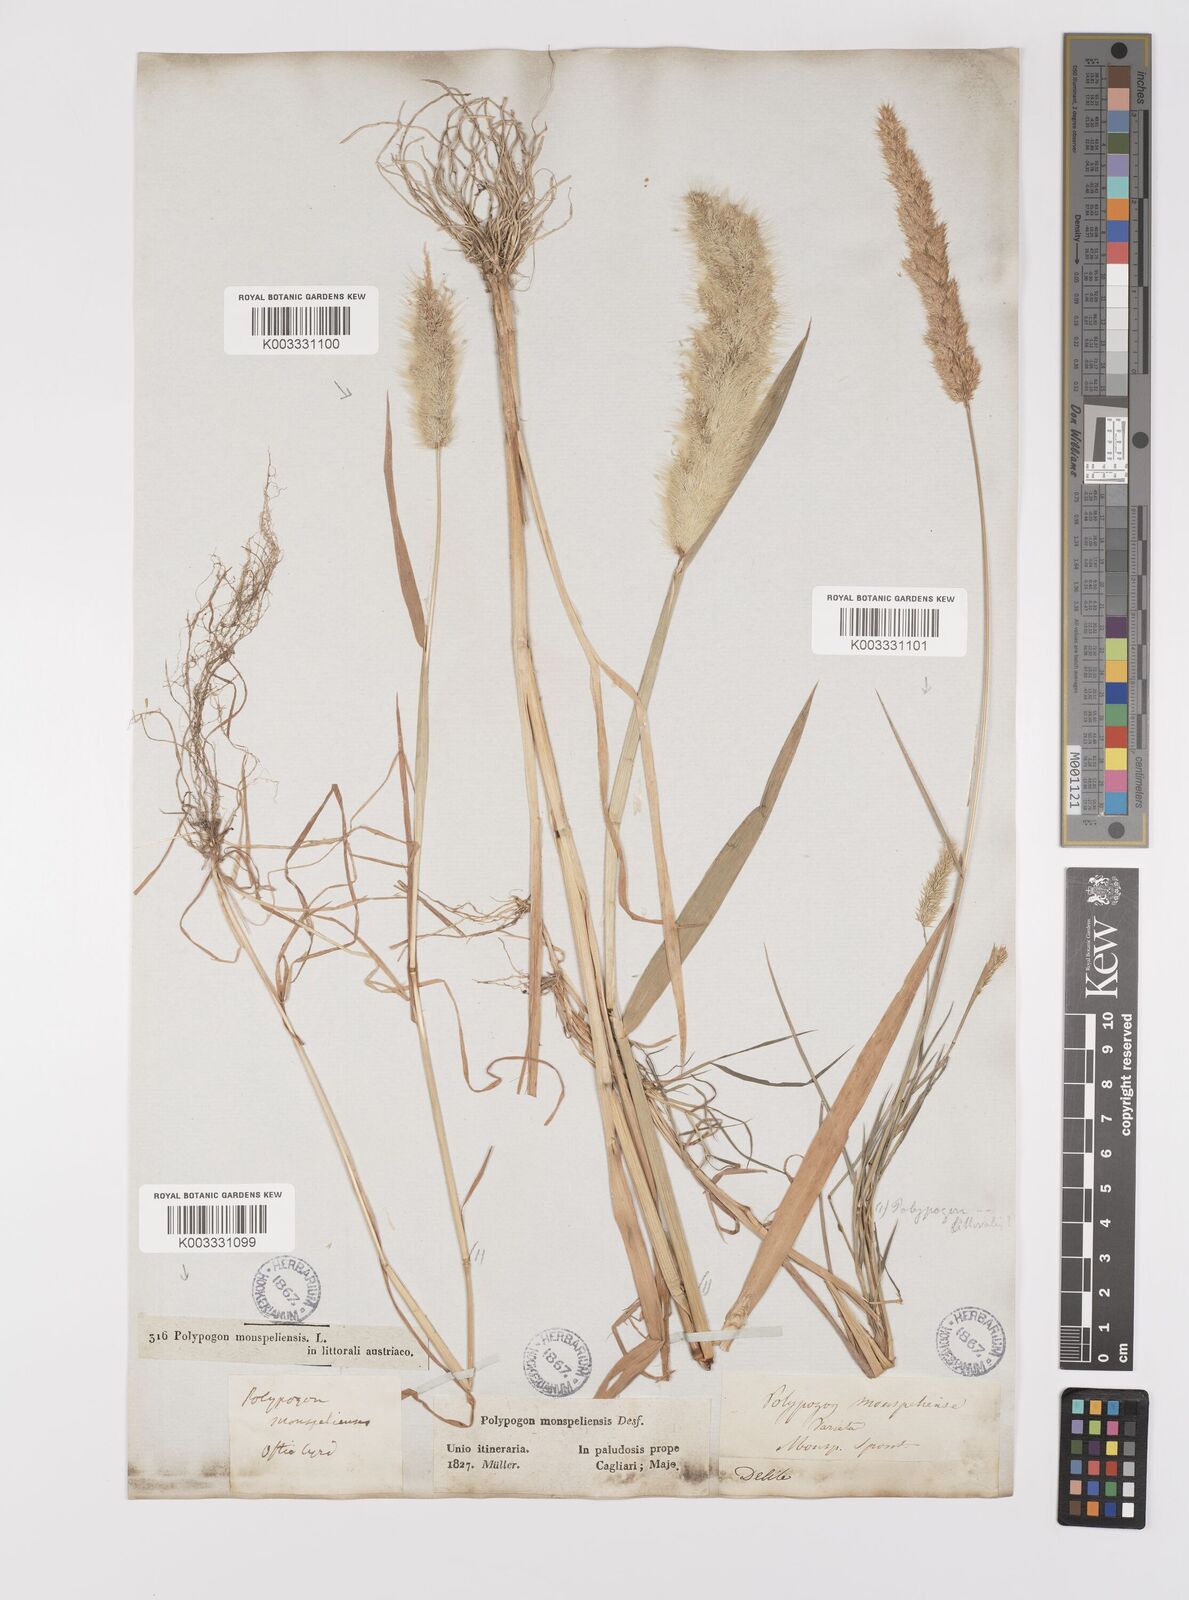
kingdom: Plantae
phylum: Tracheophyta
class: Liliopsida
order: Poales
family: Poaceae
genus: Polypogon
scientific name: Polypogon monspeliensis
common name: Annual rabbitsfoot grass
